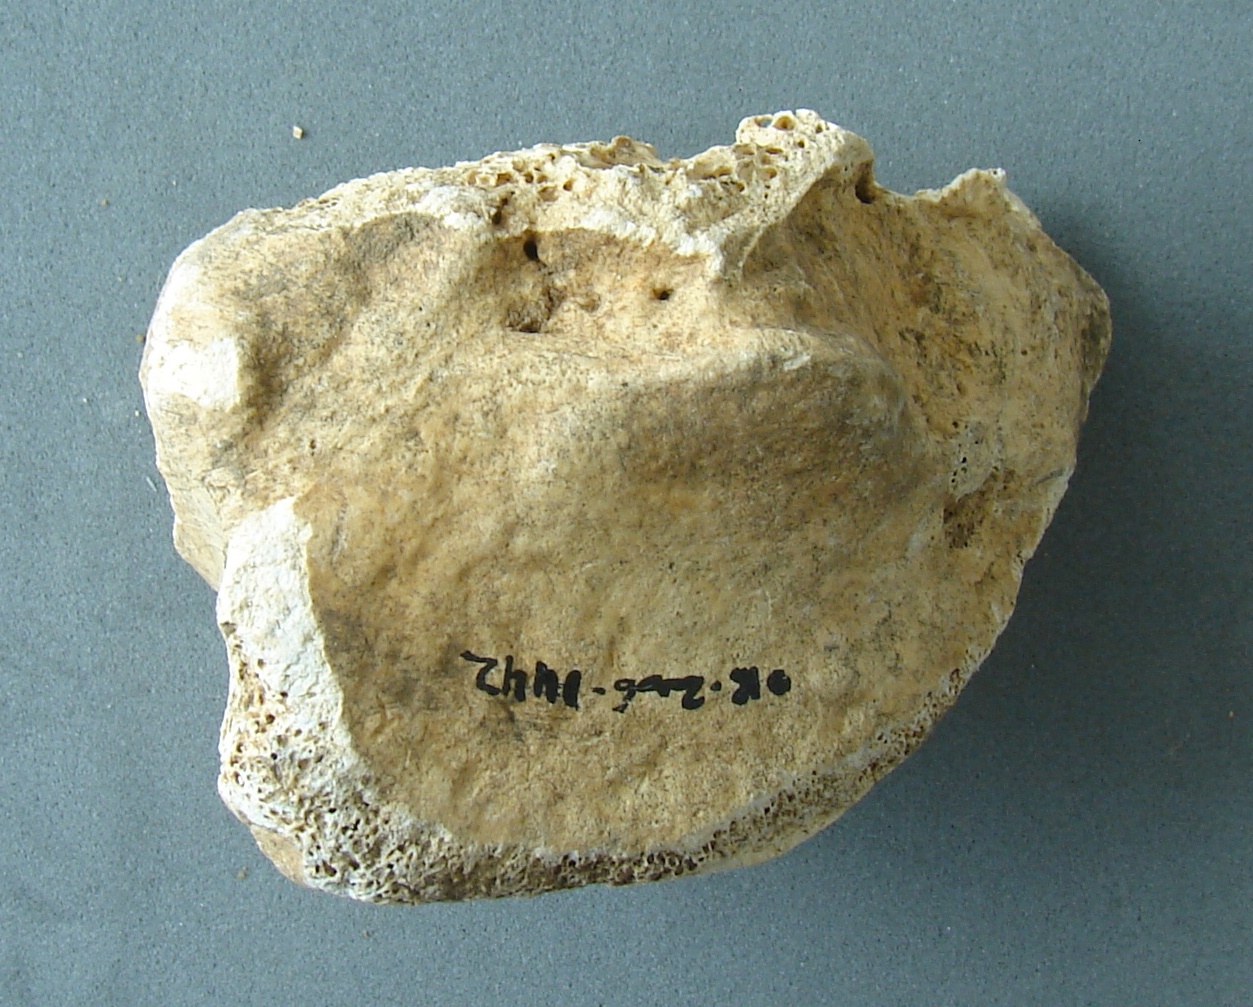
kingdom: Animalia
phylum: Chordata
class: Mammalia
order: Artiodactyla
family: Cervidae
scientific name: Cervidae
